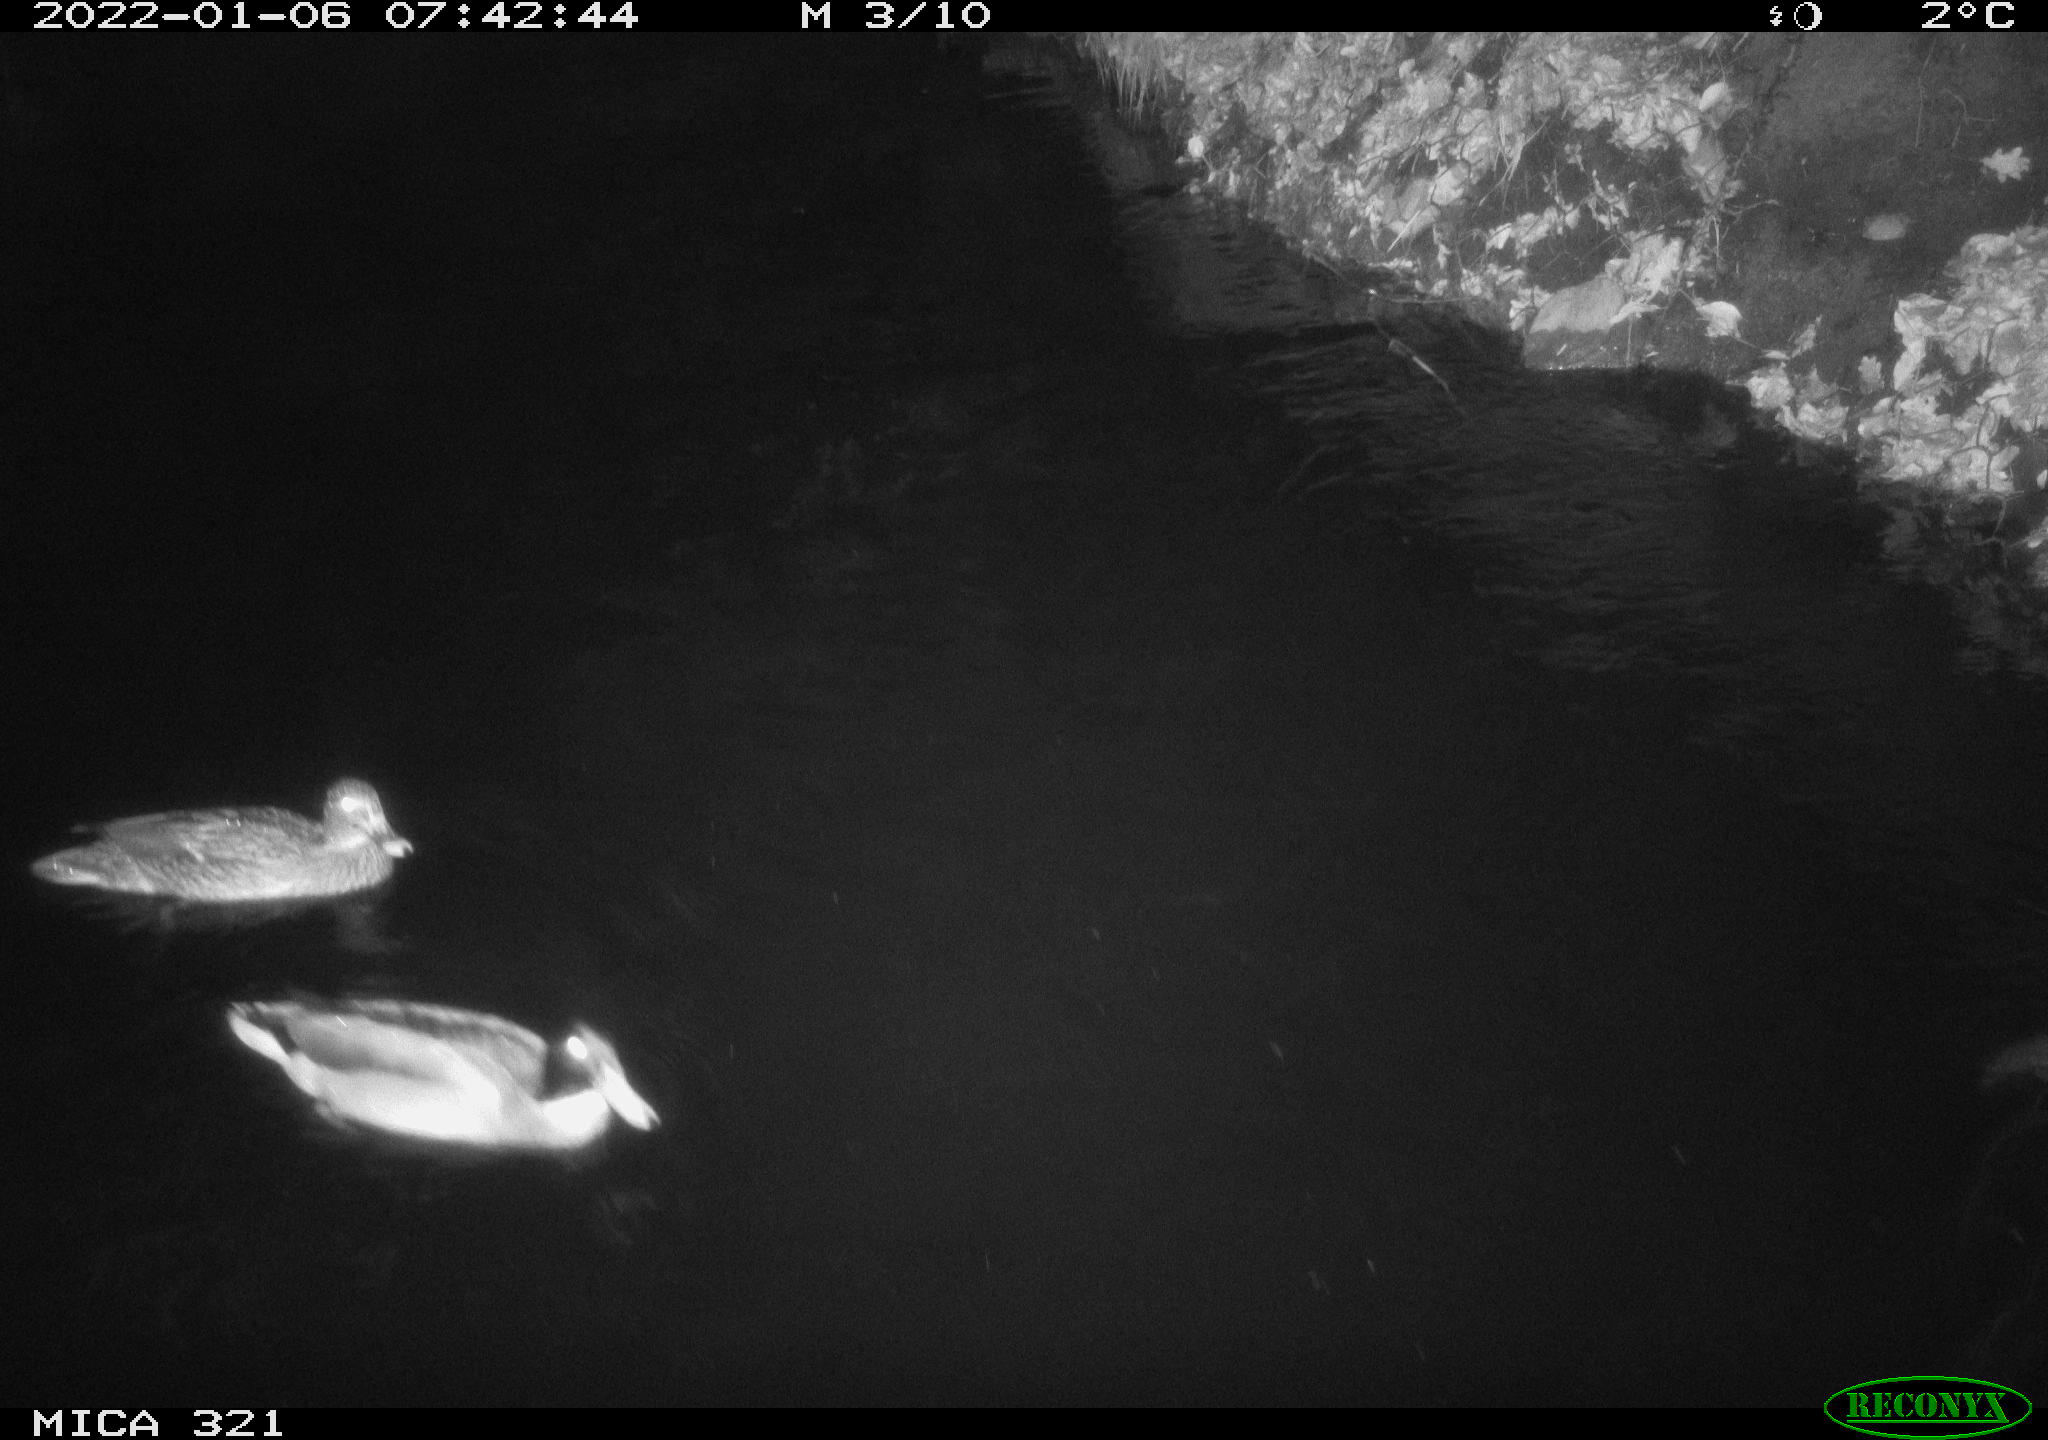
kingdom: Animalia
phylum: Chordata
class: Aves
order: Anseriformes
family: Anatidae
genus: Anas
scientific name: Anas
